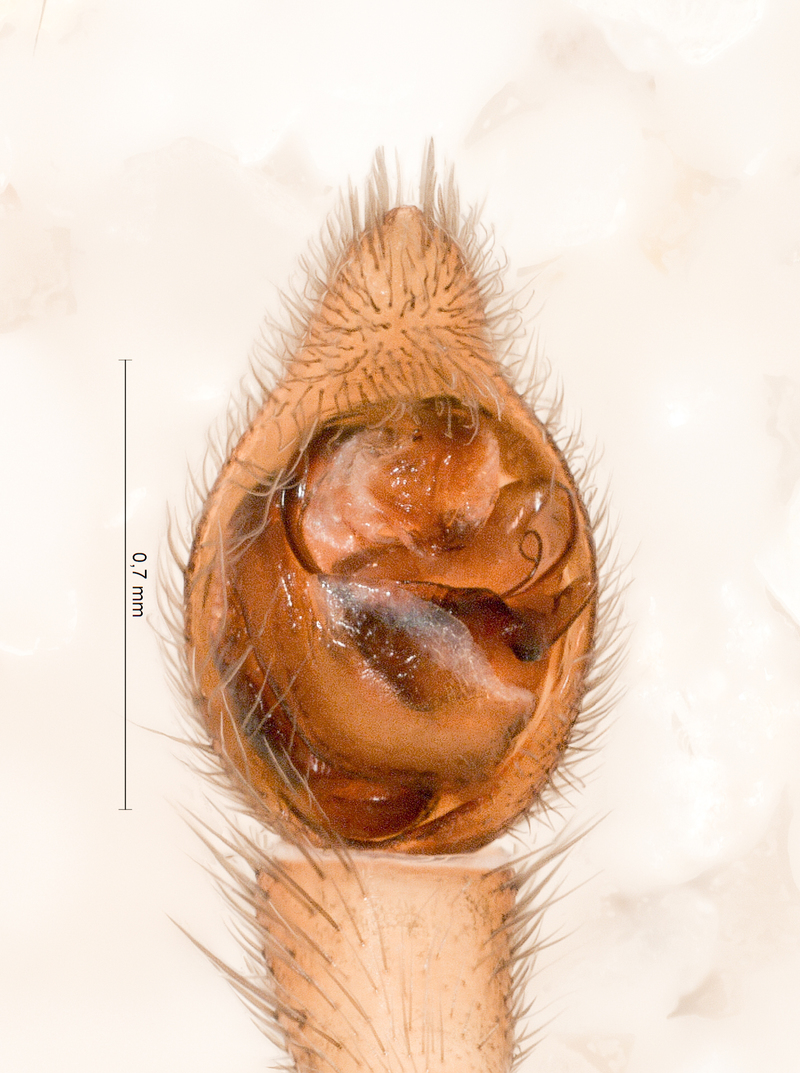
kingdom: Animalia
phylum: Arthropoda
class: Arachnida
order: Araneae
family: Lycosidae
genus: Trochosa
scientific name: Trochosa terricola
